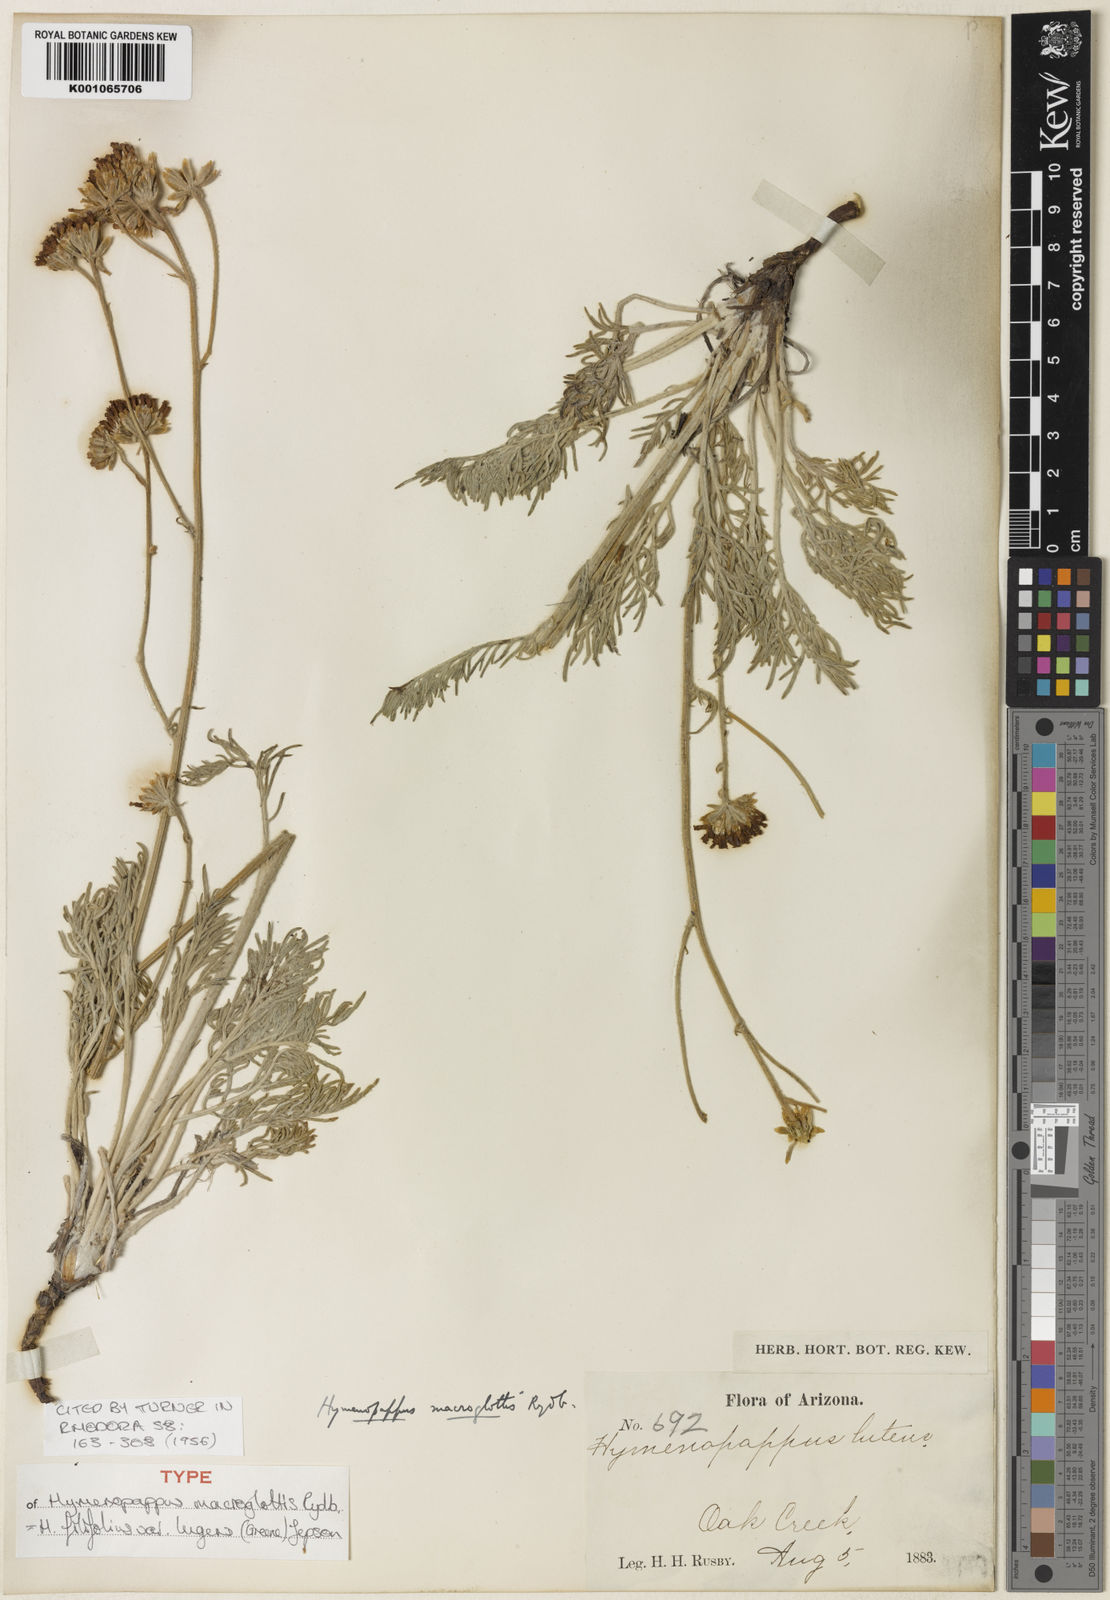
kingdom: Plantae
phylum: Tracheophyta
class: Magnoliopsida
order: Asterales
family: Asteraceae
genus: Hymenopappus
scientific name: Hymenopappus filifolius
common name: Columbia cutleaf
